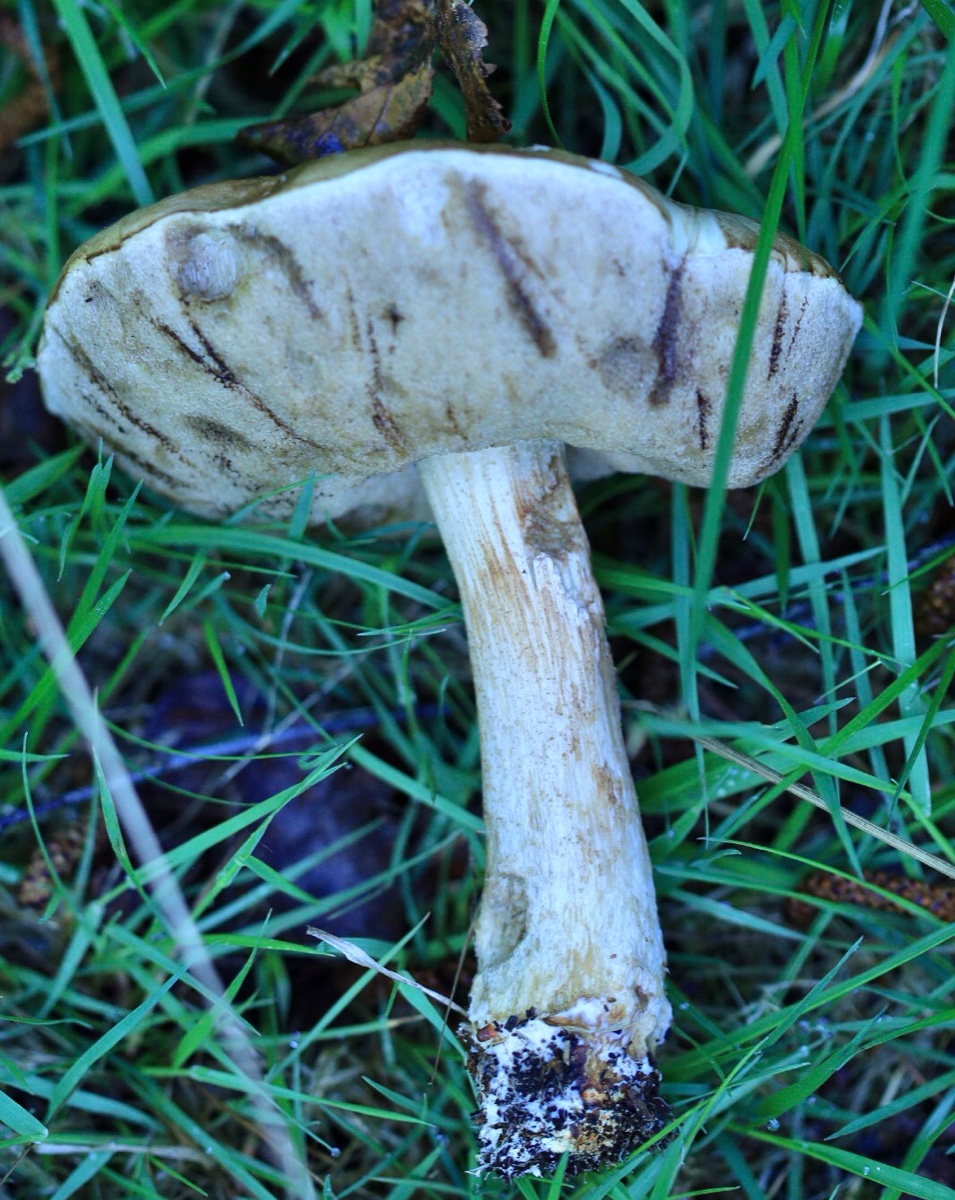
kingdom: Fungi
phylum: Basidiomycota
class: Agaricomycetes
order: Boletales
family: Boletaceae
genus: Leccinum
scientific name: Leccinum
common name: skælrørhat
